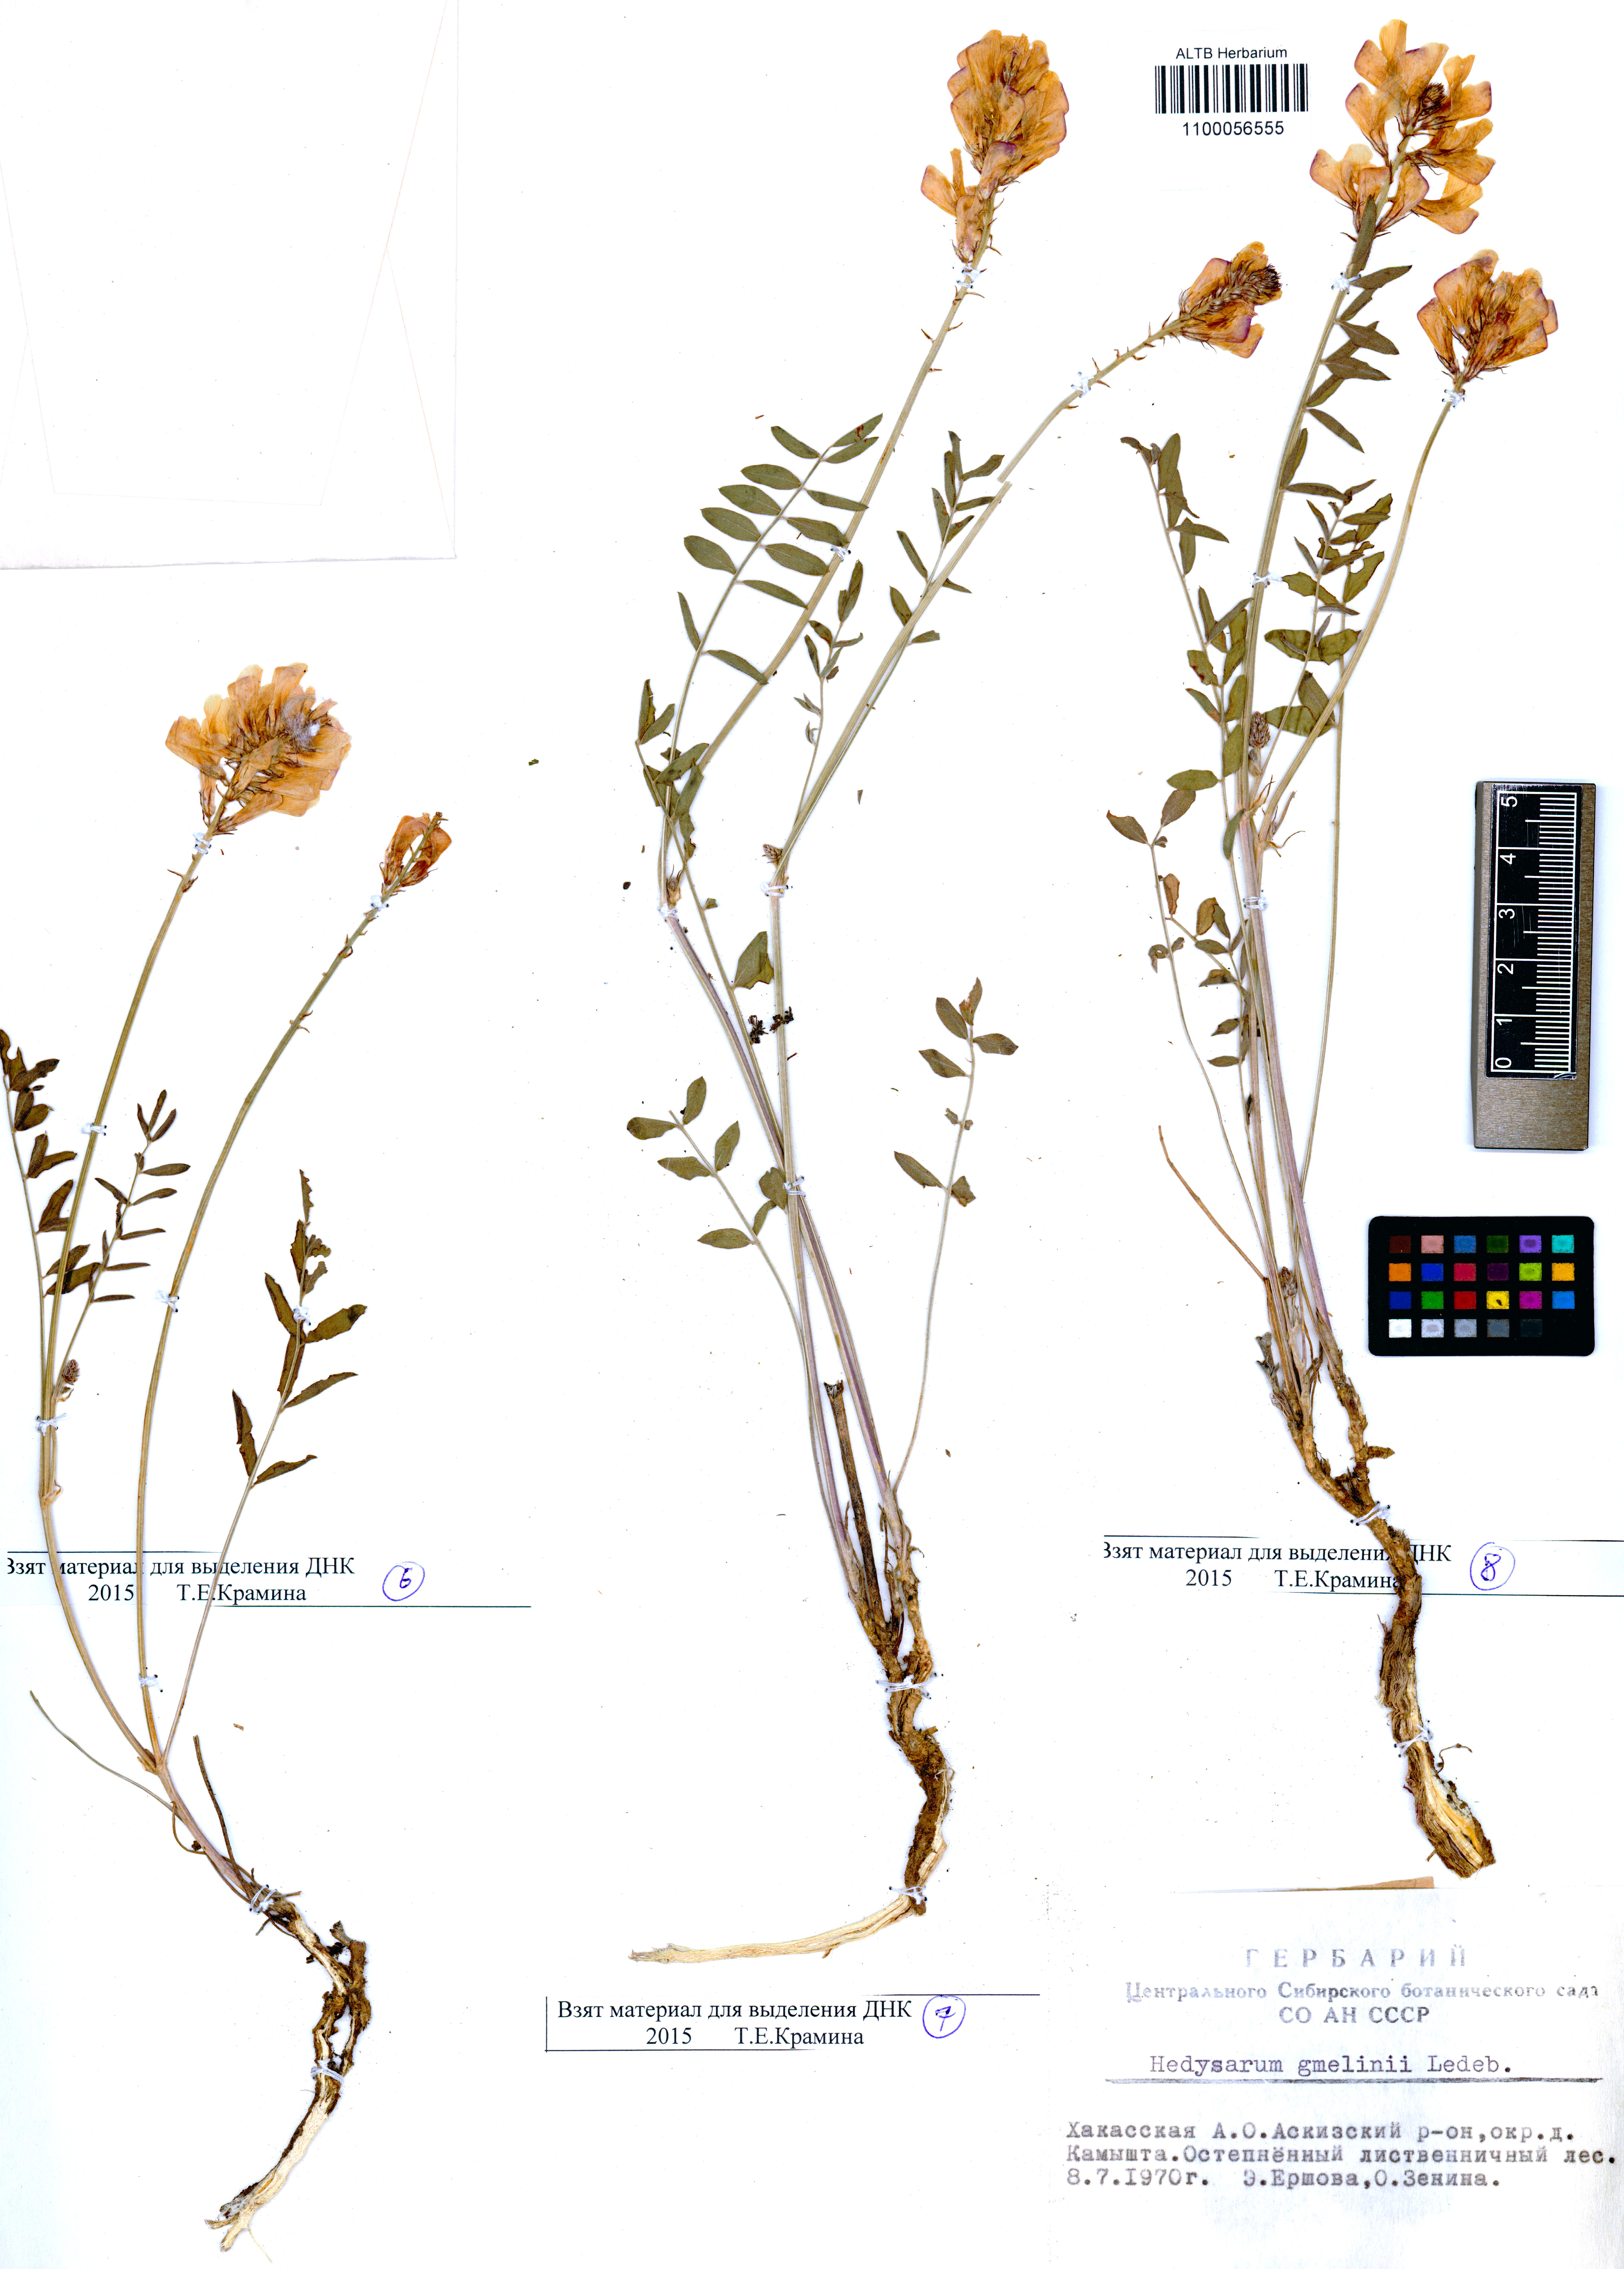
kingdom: Plantae
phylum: Tracheophyta
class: Magnoliopsida
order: Fabales
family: Fabaceae
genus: Hedysarum
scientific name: Hedysarum gmelinii
